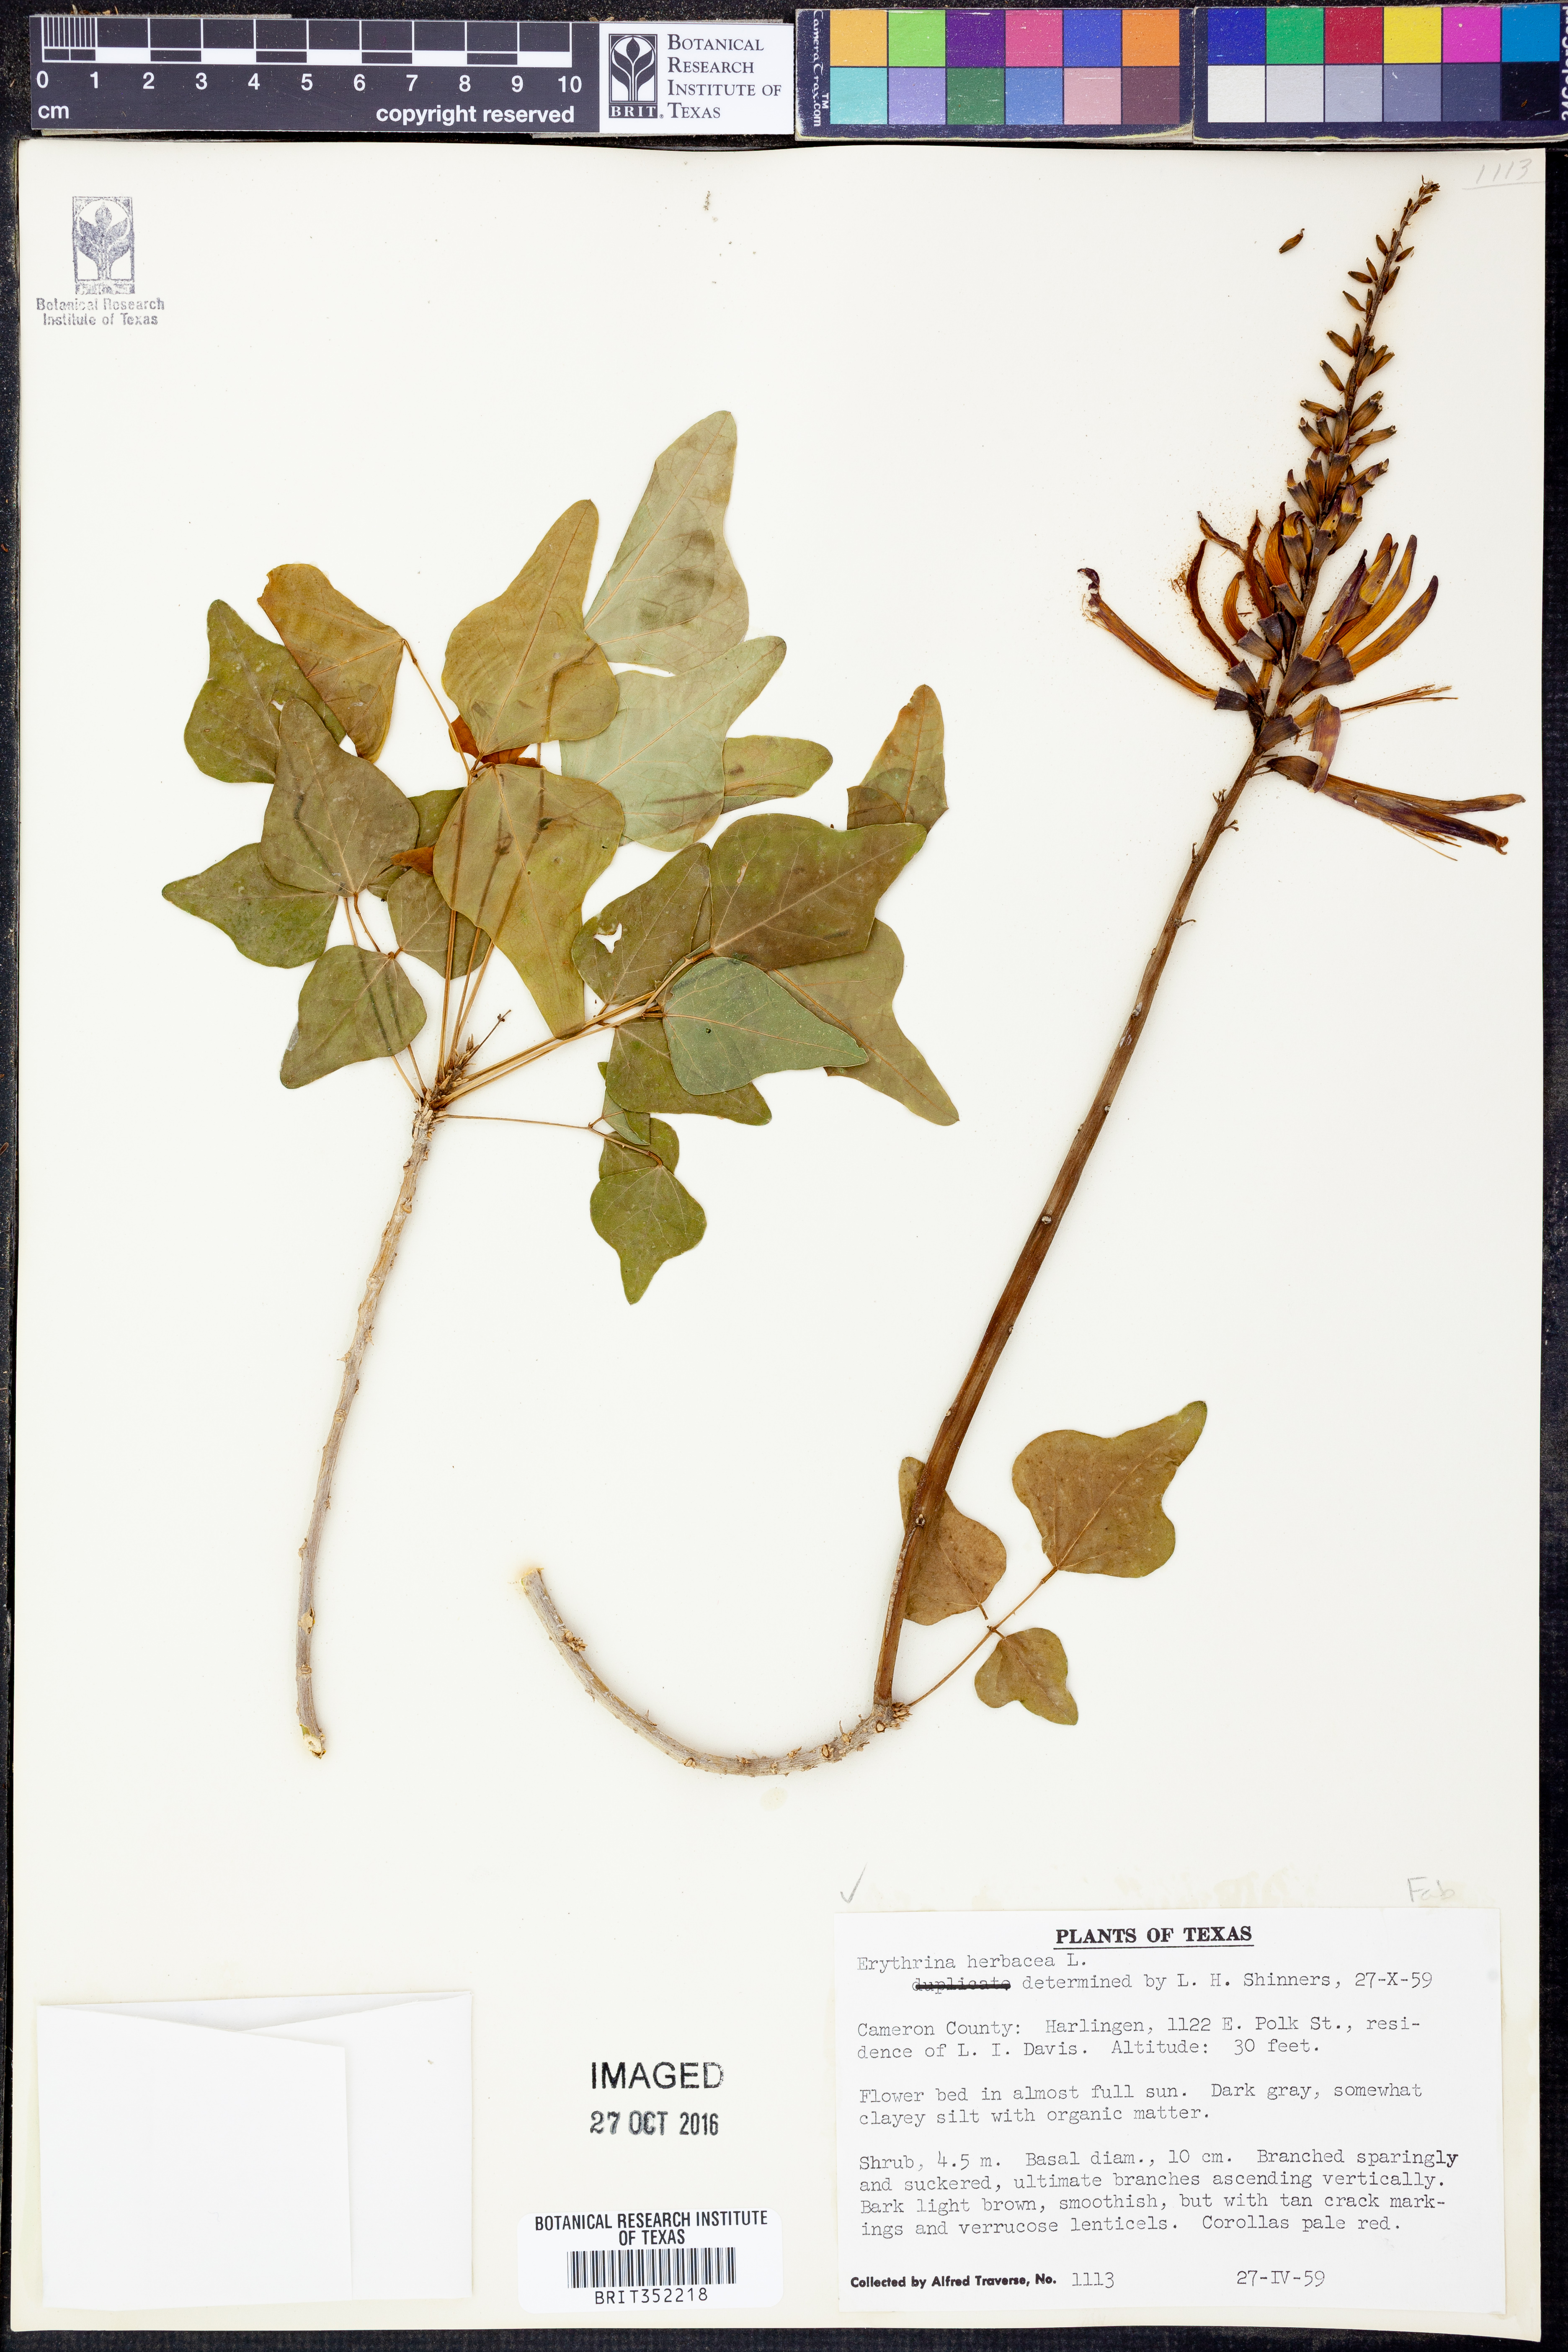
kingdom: Plantae
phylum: Tracheophyta
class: Magnoliopsida
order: Fabales
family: Fabaceae
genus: Erythrina
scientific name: Erythrina herbacea
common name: Coral-bean
